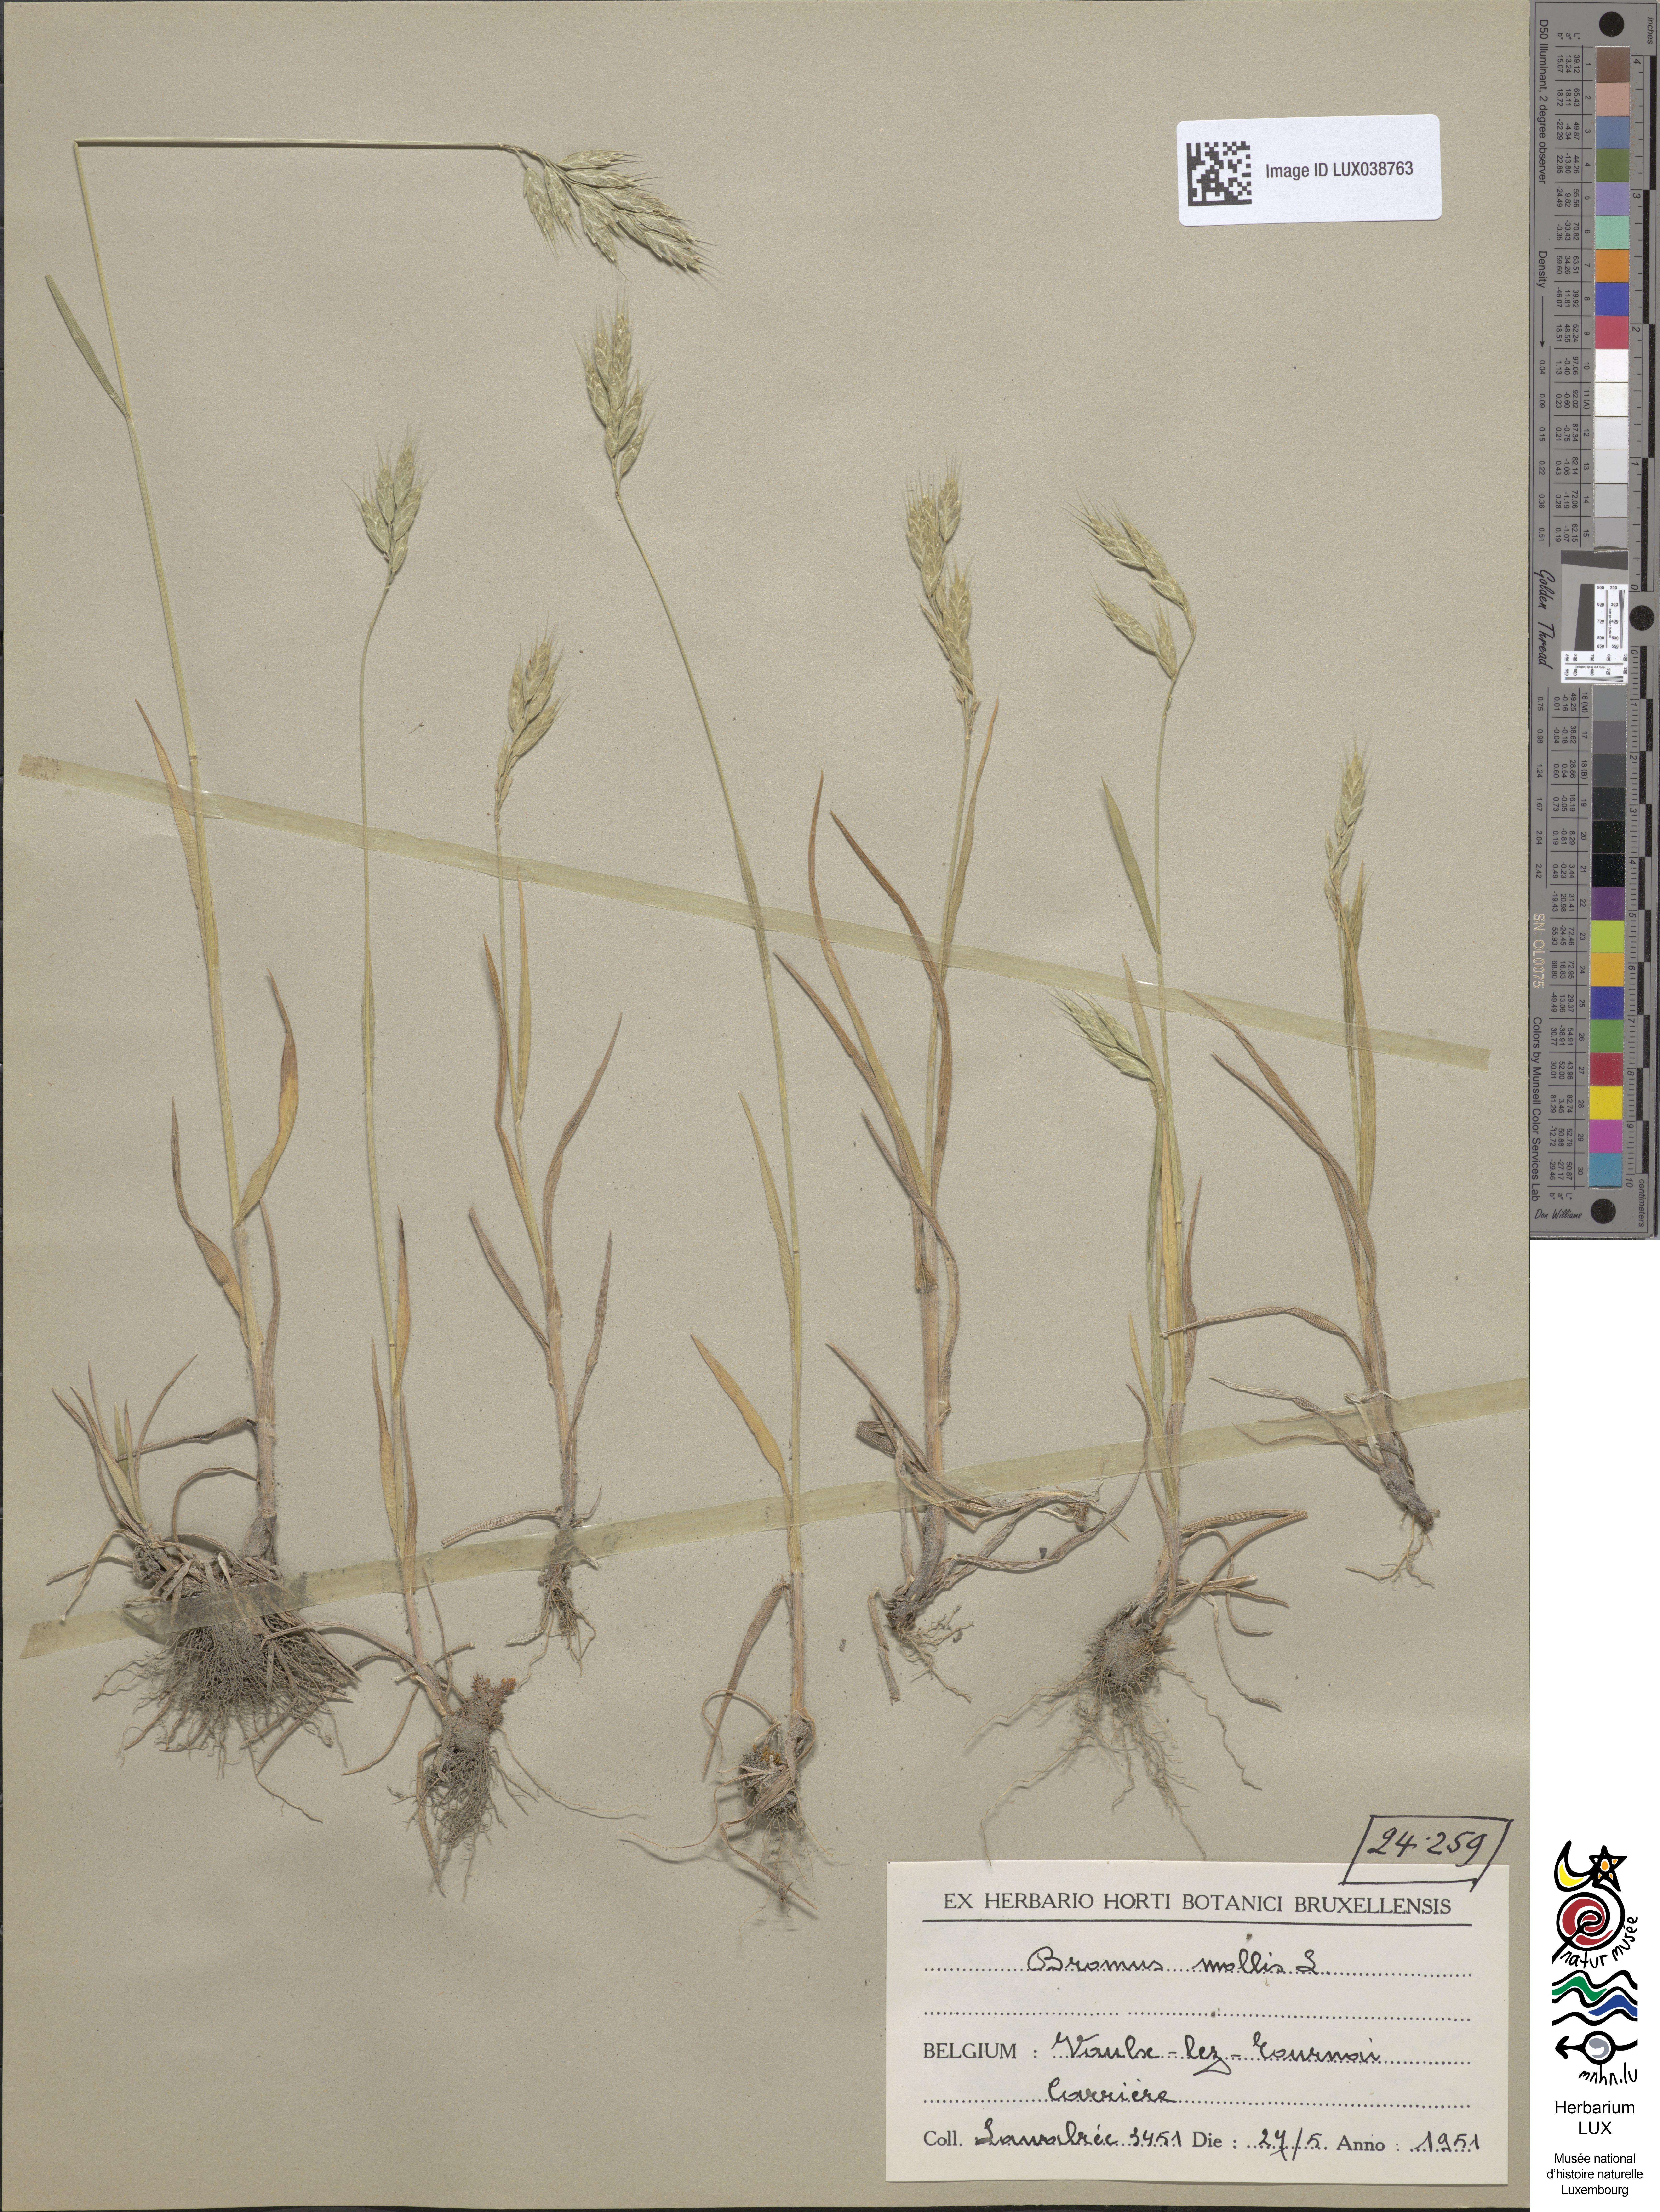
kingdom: Plantae
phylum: Tracheophyta
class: Liliopsida
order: Poales
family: Poaceae
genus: Bromus
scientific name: Bromus hordeaceus
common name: Soft brome
